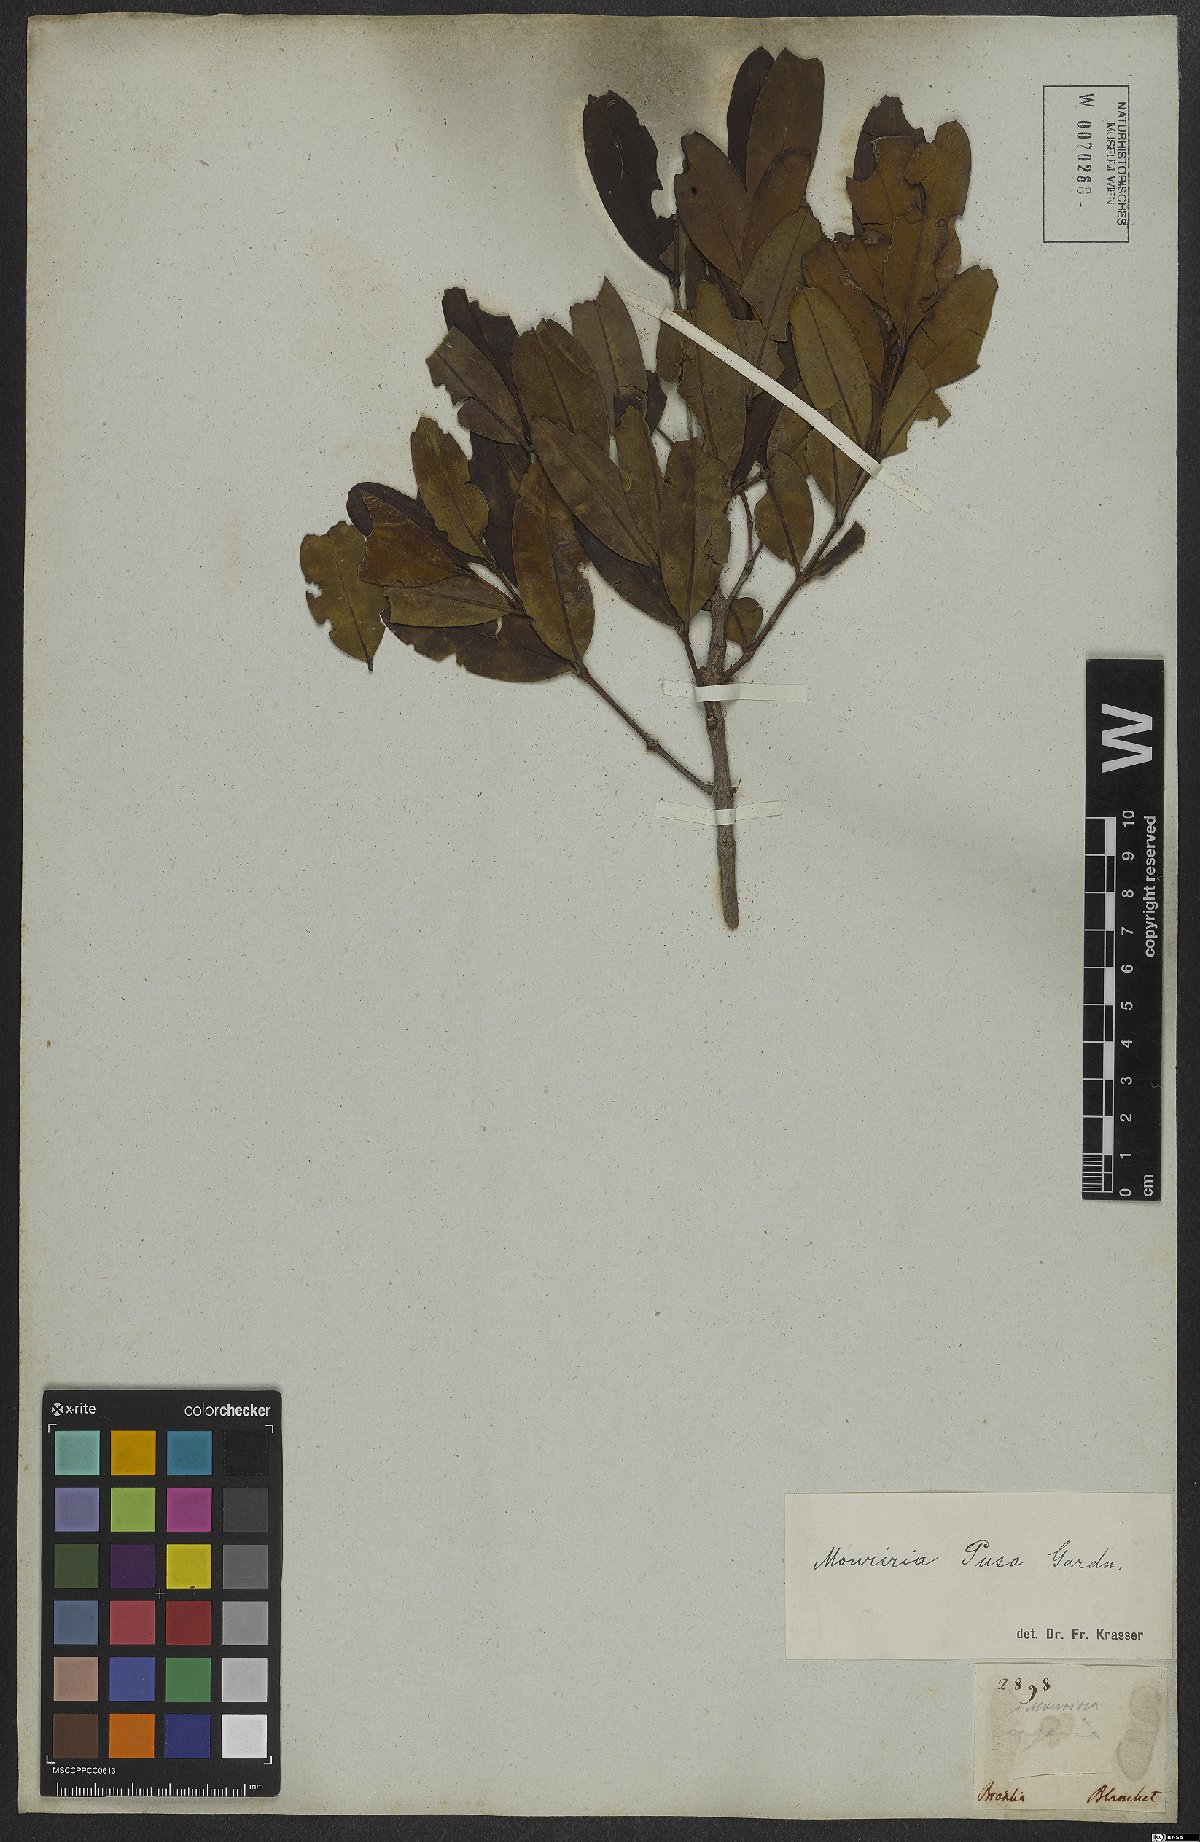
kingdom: Plantae
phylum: Tracheophyta
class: Magnoliopsida
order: Myrtales
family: Melastomataceae
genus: Mouriri
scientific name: Mouriri pusa
